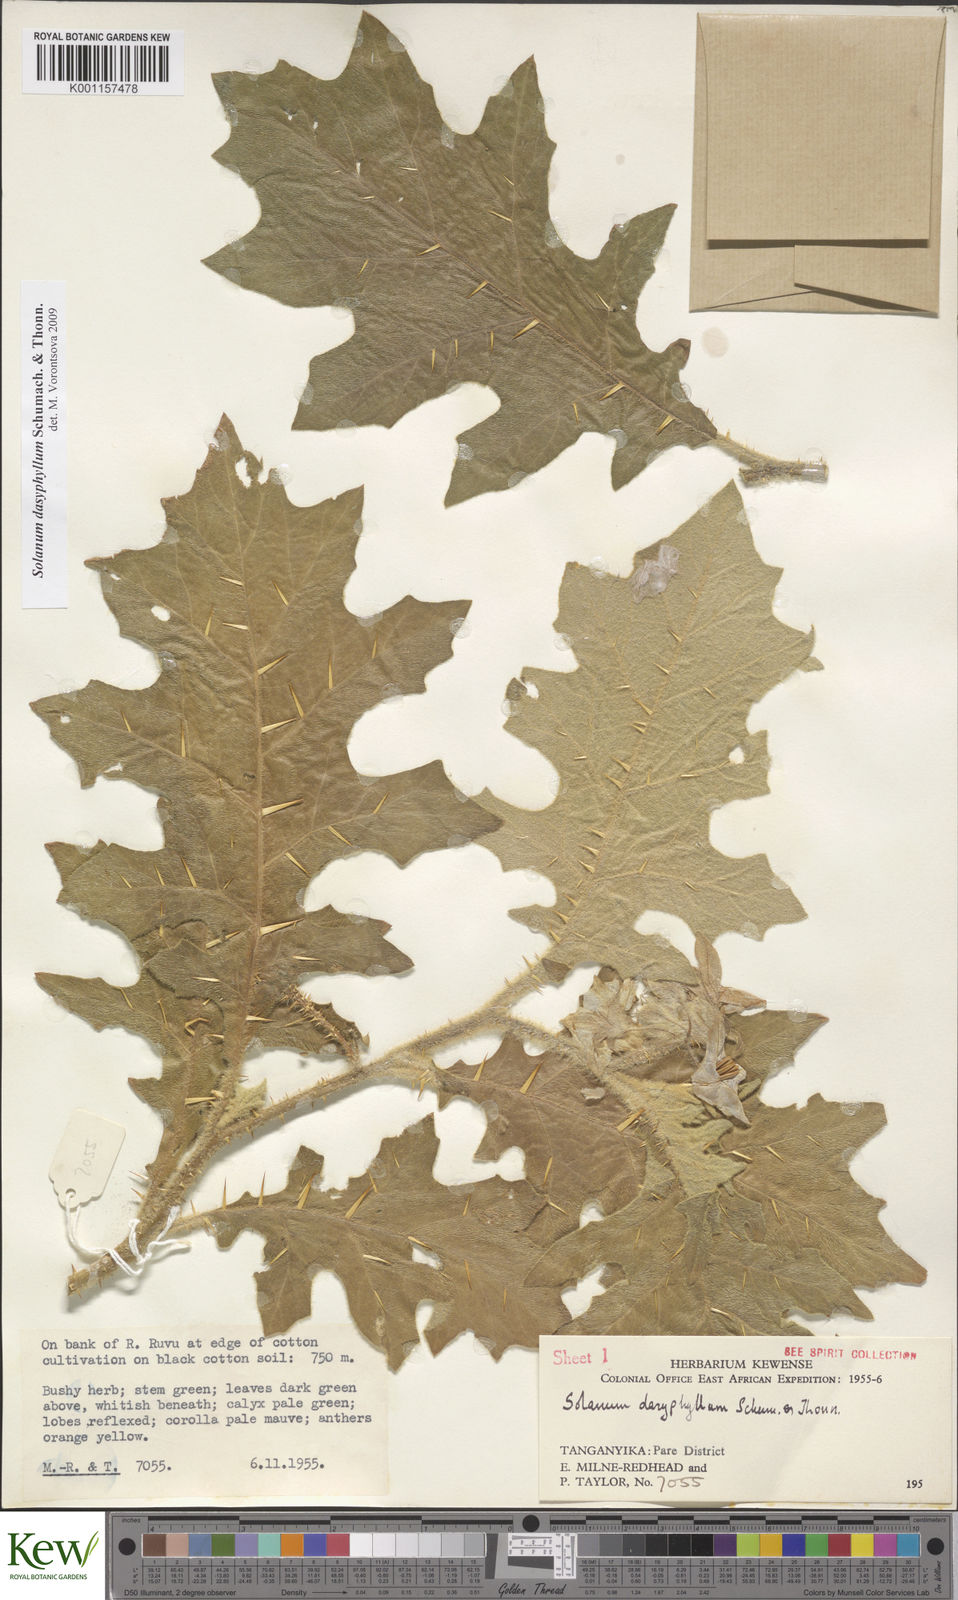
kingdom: Plantae
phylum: Tracheophyta
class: Magnoliopsida
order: Solanales
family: Solanaceae
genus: Solanum
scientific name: Solanum dasyphyllum
